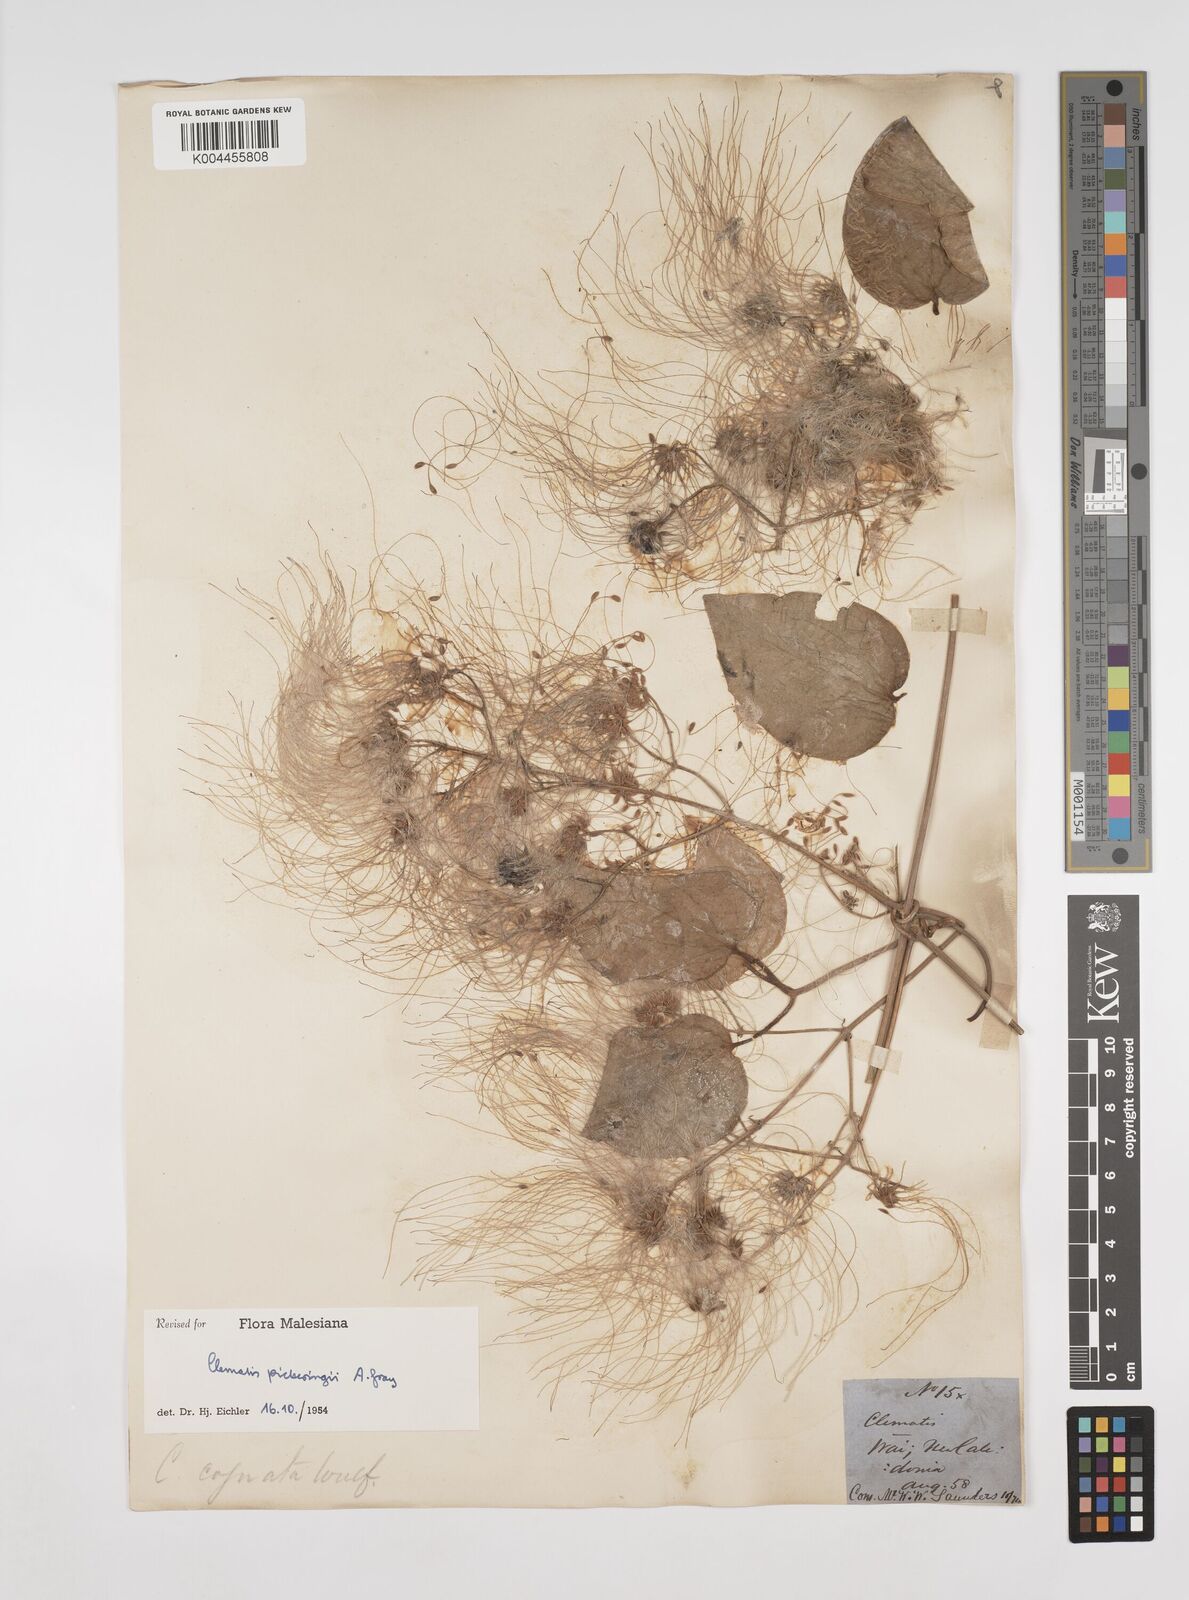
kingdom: Plantae
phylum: Tracheophyta
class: Magnoliopsida
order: Ranunculales
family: Ranunculaceae
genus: Clematis
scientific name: Clematis pickeringii
